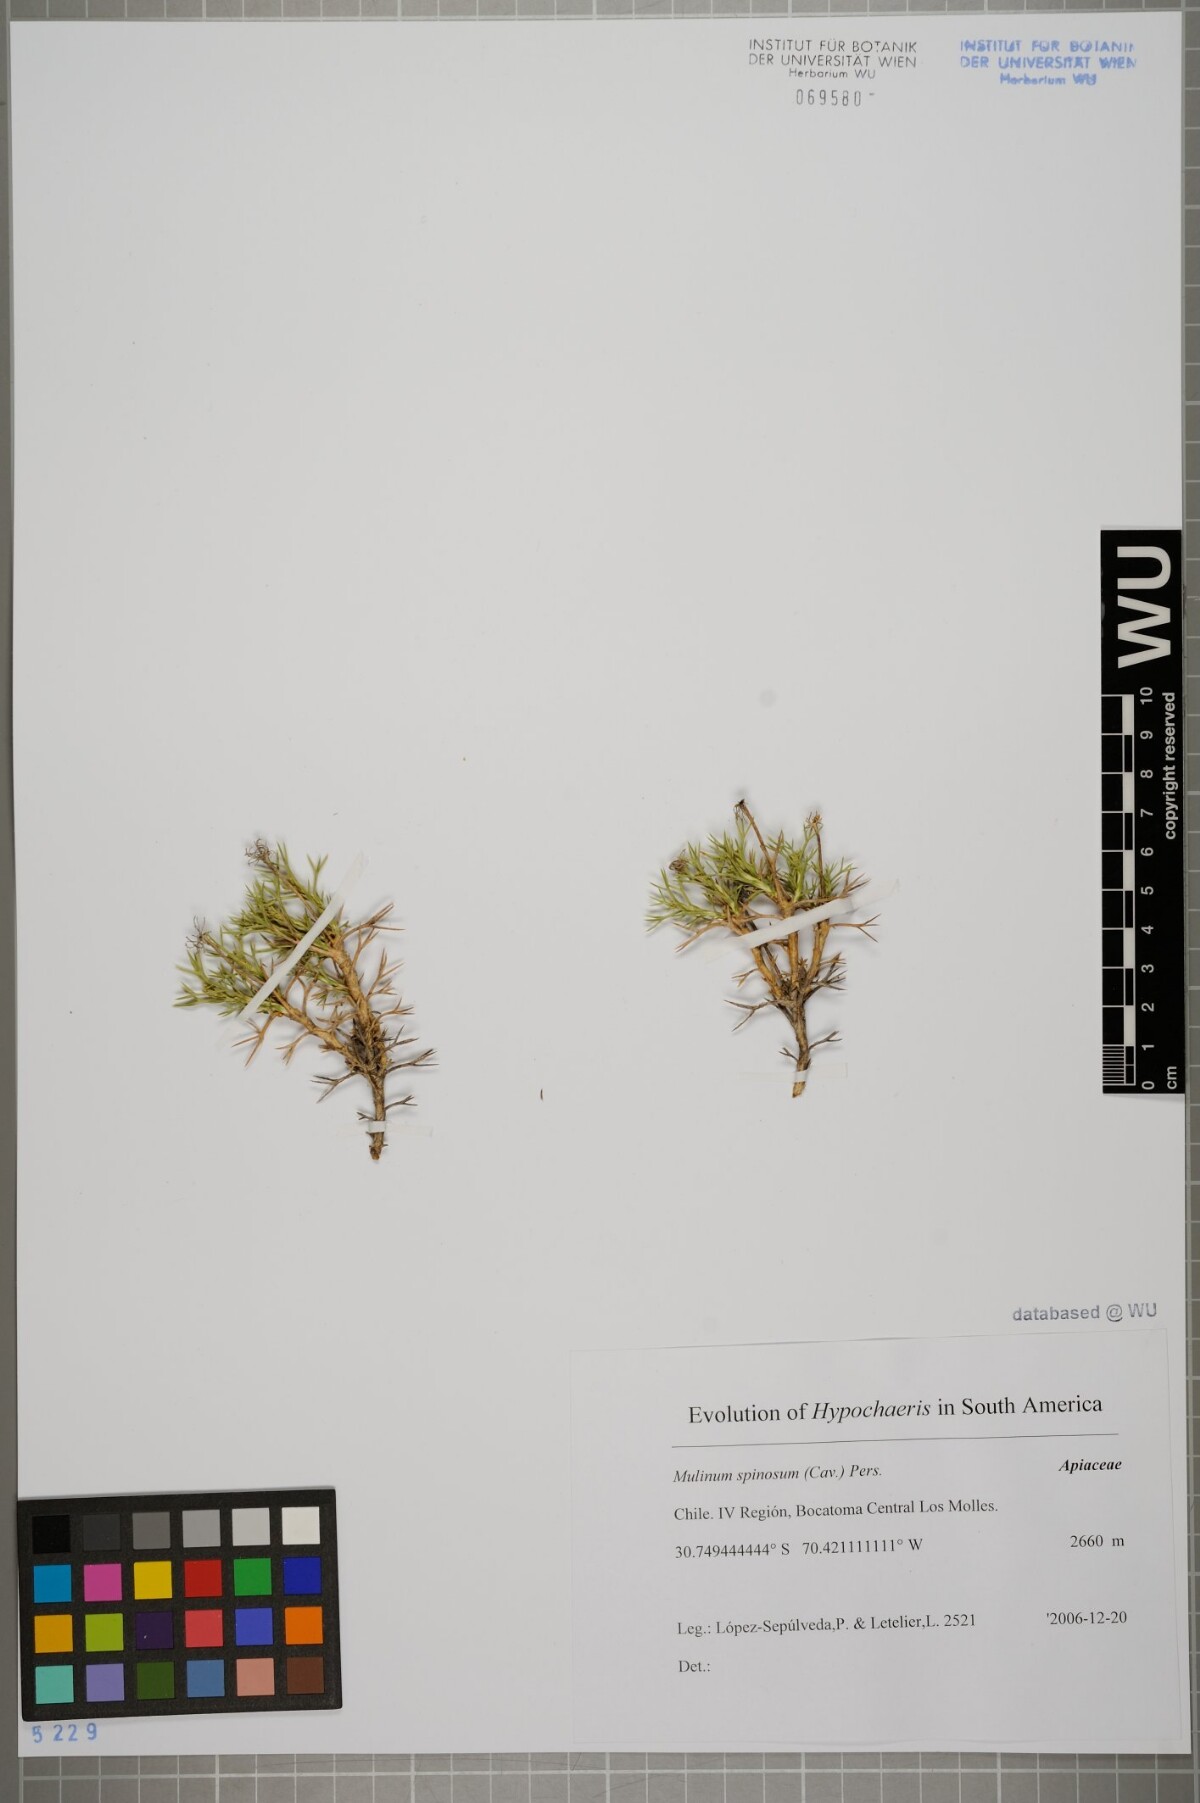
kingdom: Plantae
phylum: Tracheophyta
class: Magnoliopsida
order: Apiales
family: Apiaceae
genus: Azorella
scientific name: Azorella prolifera
